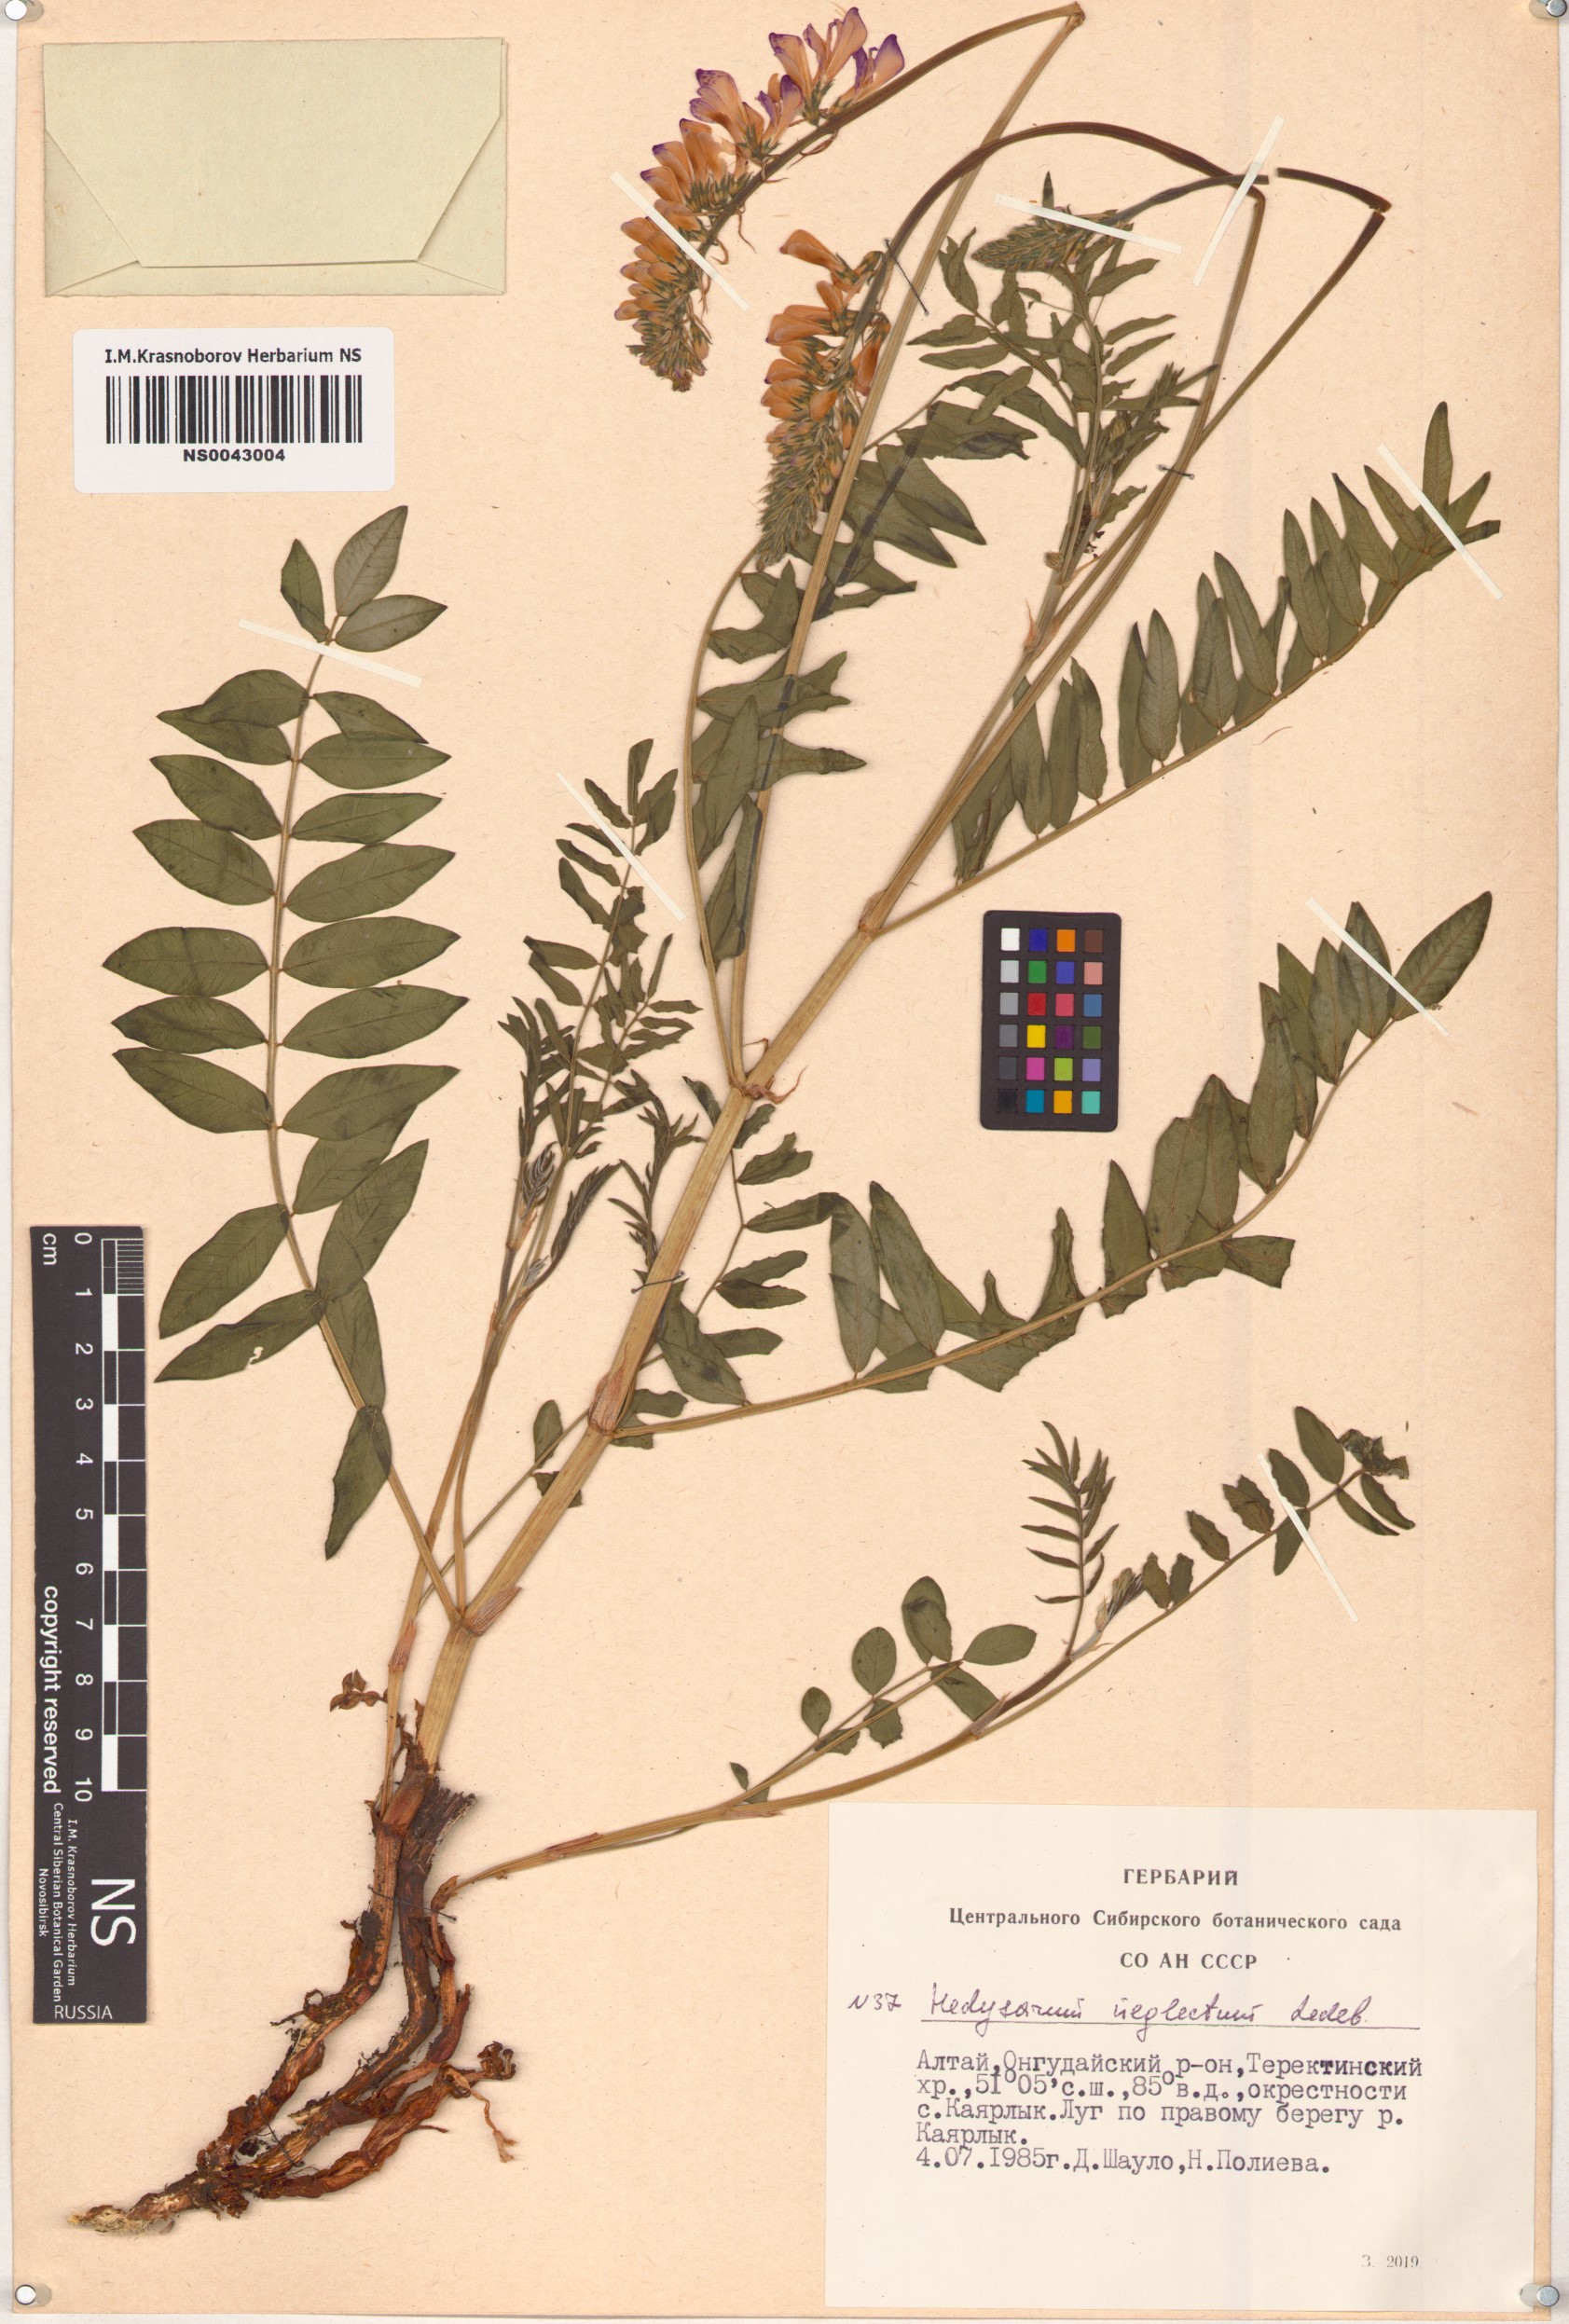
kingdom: Plantae
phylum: Tracheophyta
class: Magnoliopsida
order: Fabales
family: Fabaceae
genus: Hedysarum
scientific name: Hedysarum neglectum
